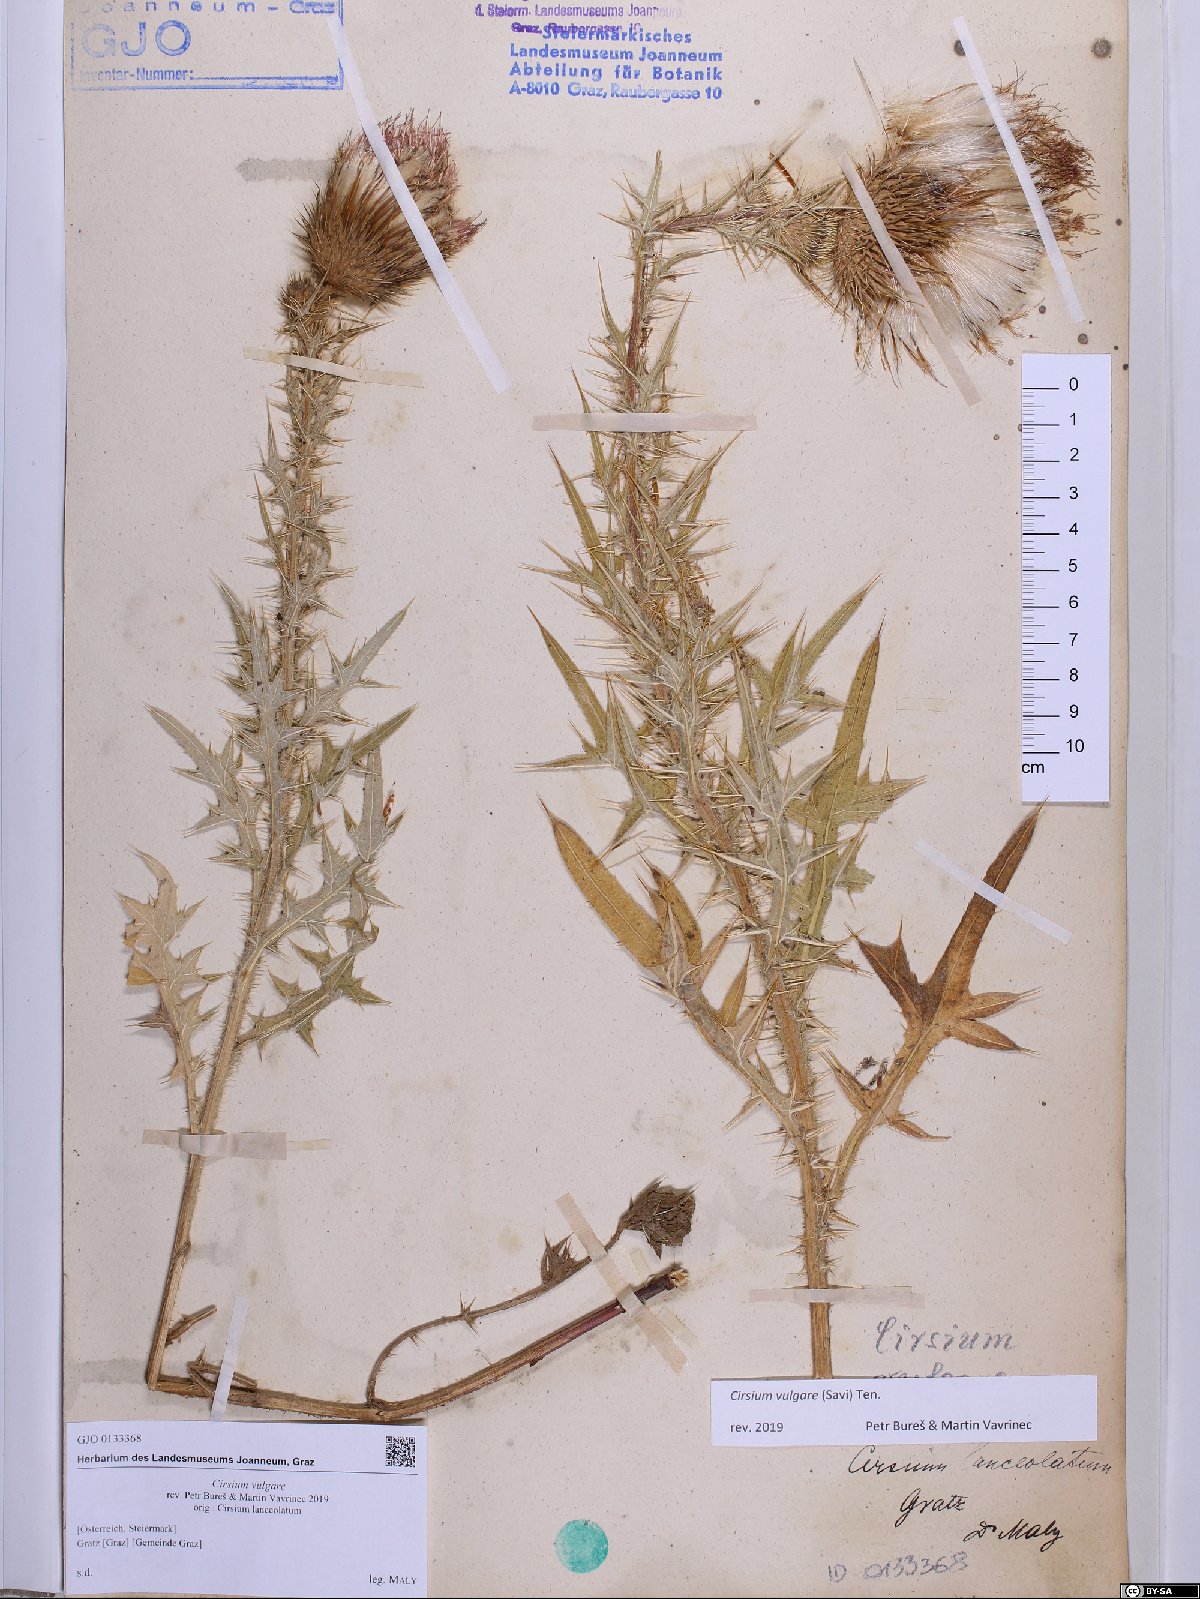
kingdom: Plantae
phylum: Tracheophyta
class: Magnoliopsida
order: Asterales
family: Asteraceae
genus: Cirsium
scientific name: Cirsium vulgare
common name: Bull thistle
